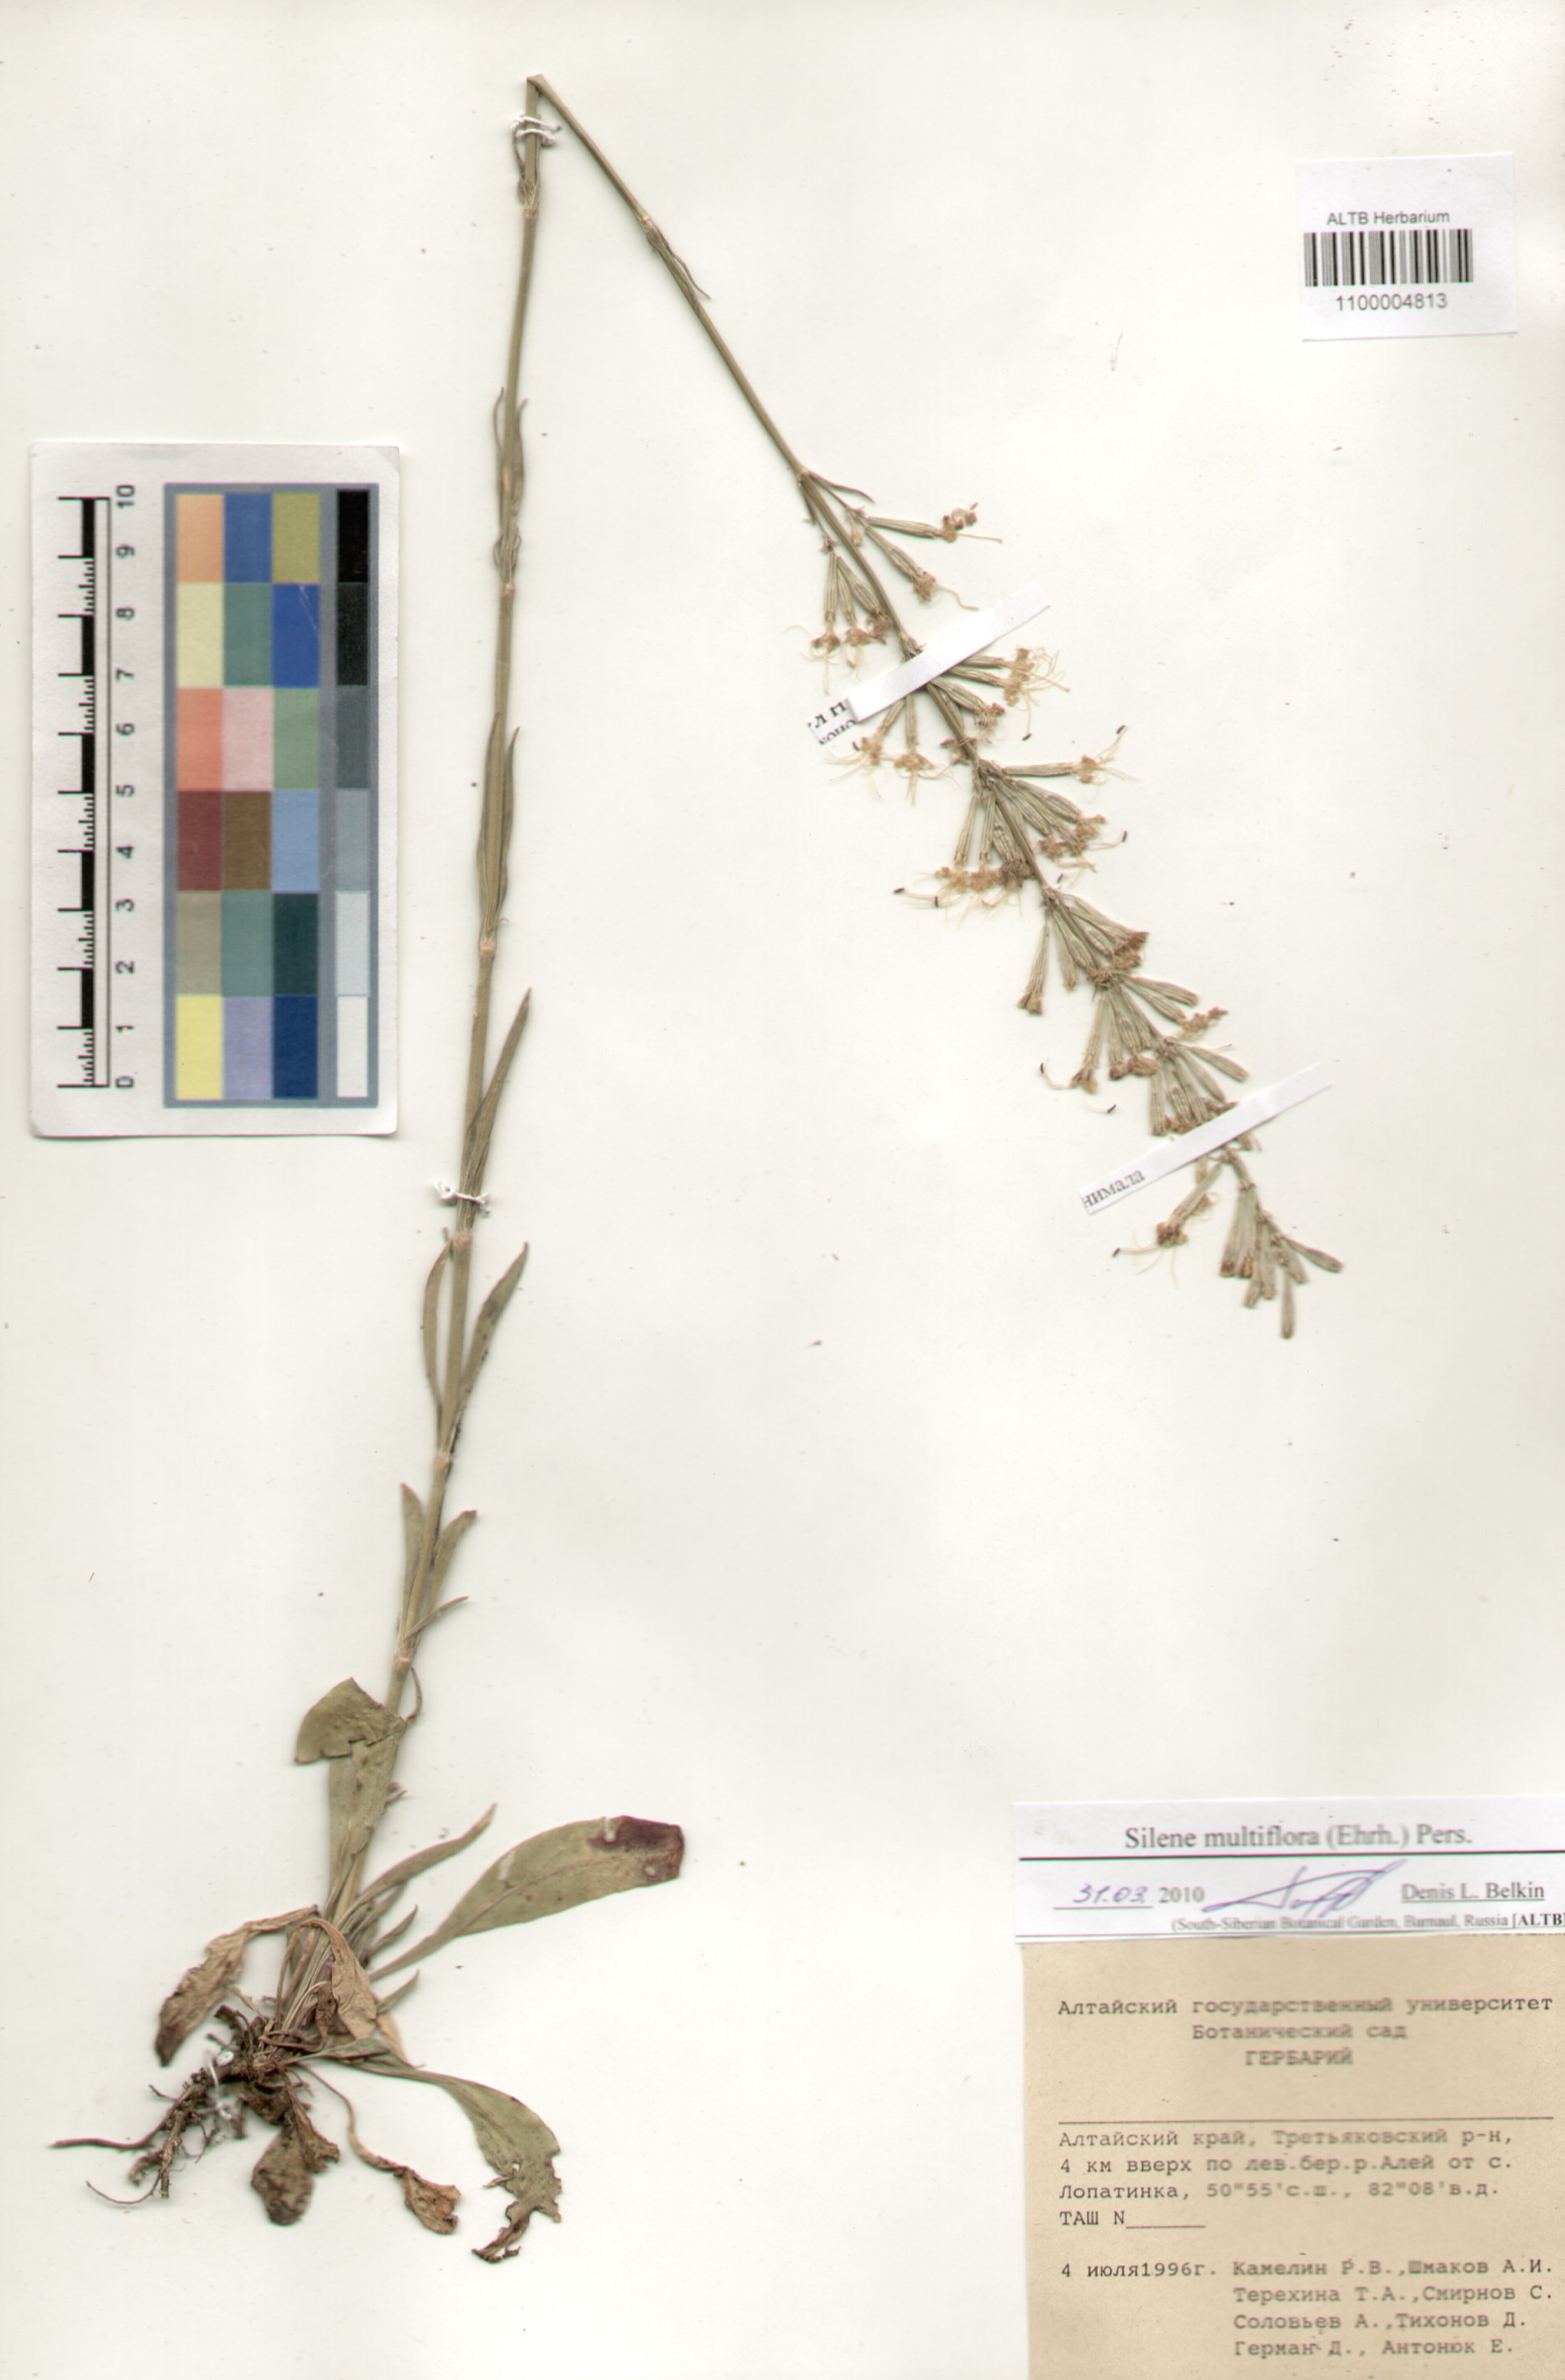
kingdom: Plantae
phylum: Tracheophyta
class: Magnoliopsida
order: Caryophyllales
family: Caryophyllaceae
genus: Silene
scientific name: Silene multiflora
